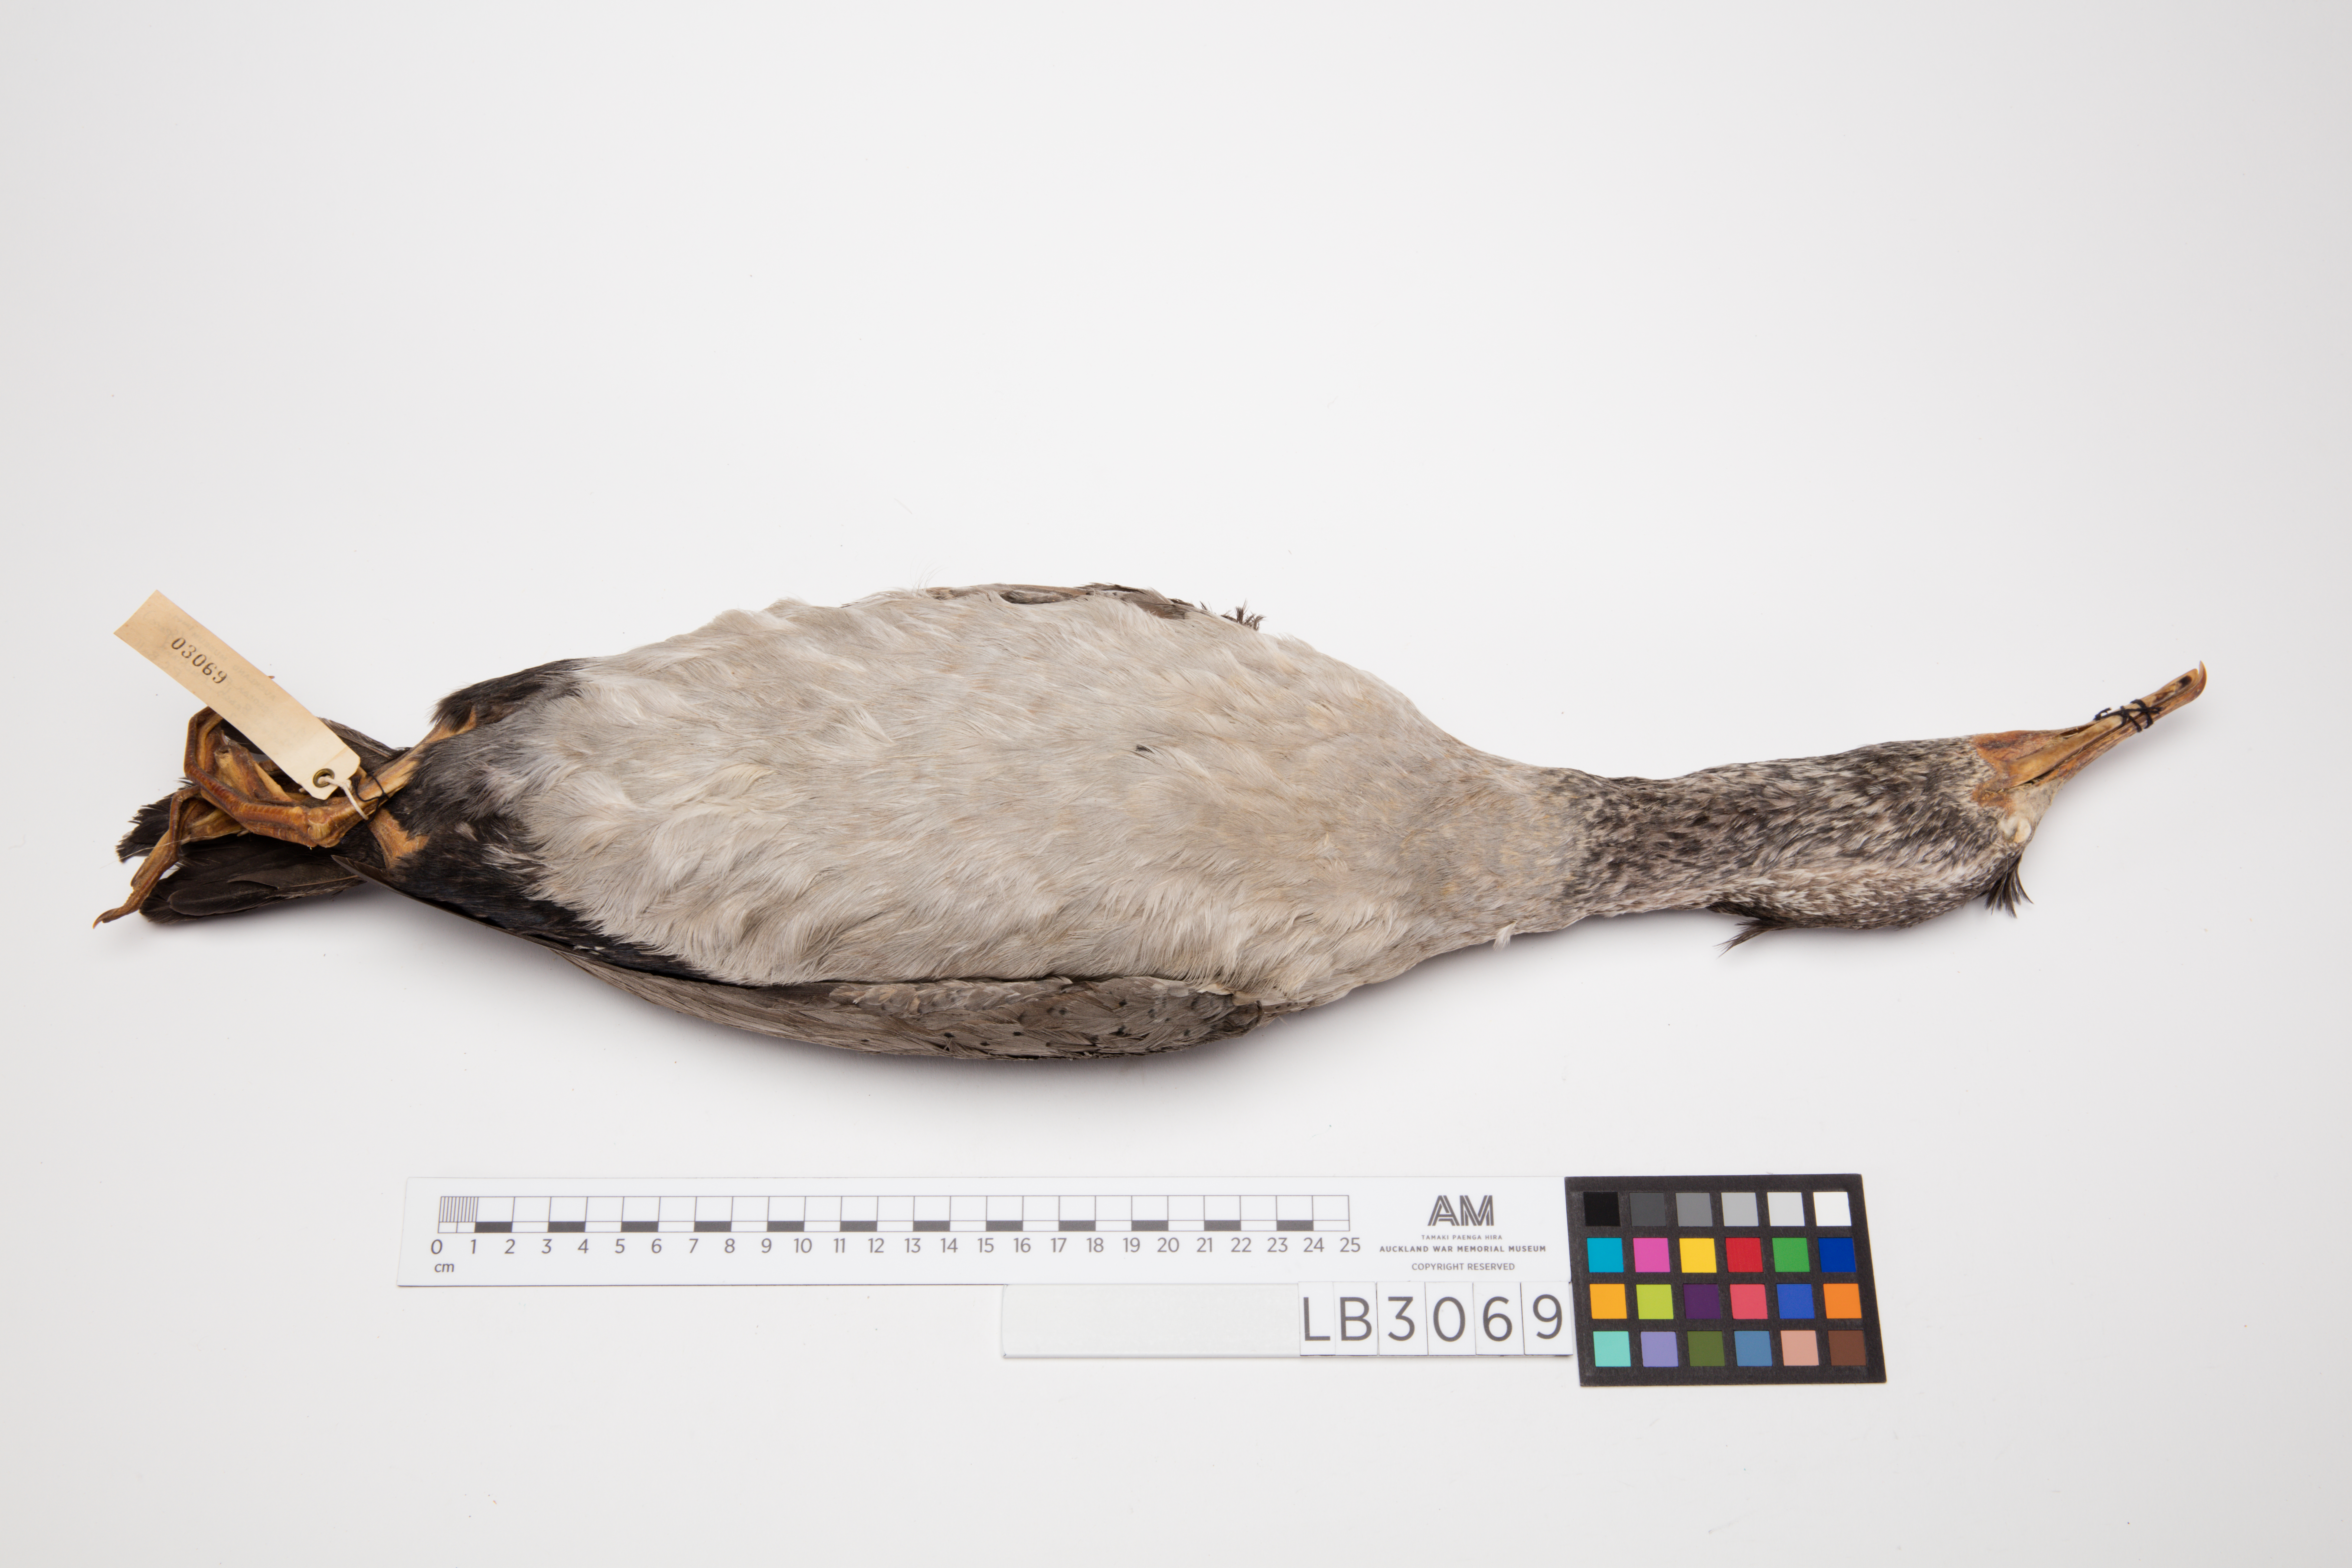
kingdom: Animalia
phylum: Chordata
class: Aves
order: Suliformes
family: Phalacrocoracidae
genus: Phalacrocorax
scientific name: Phalacrocorax punctatus
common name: Spotted shag
